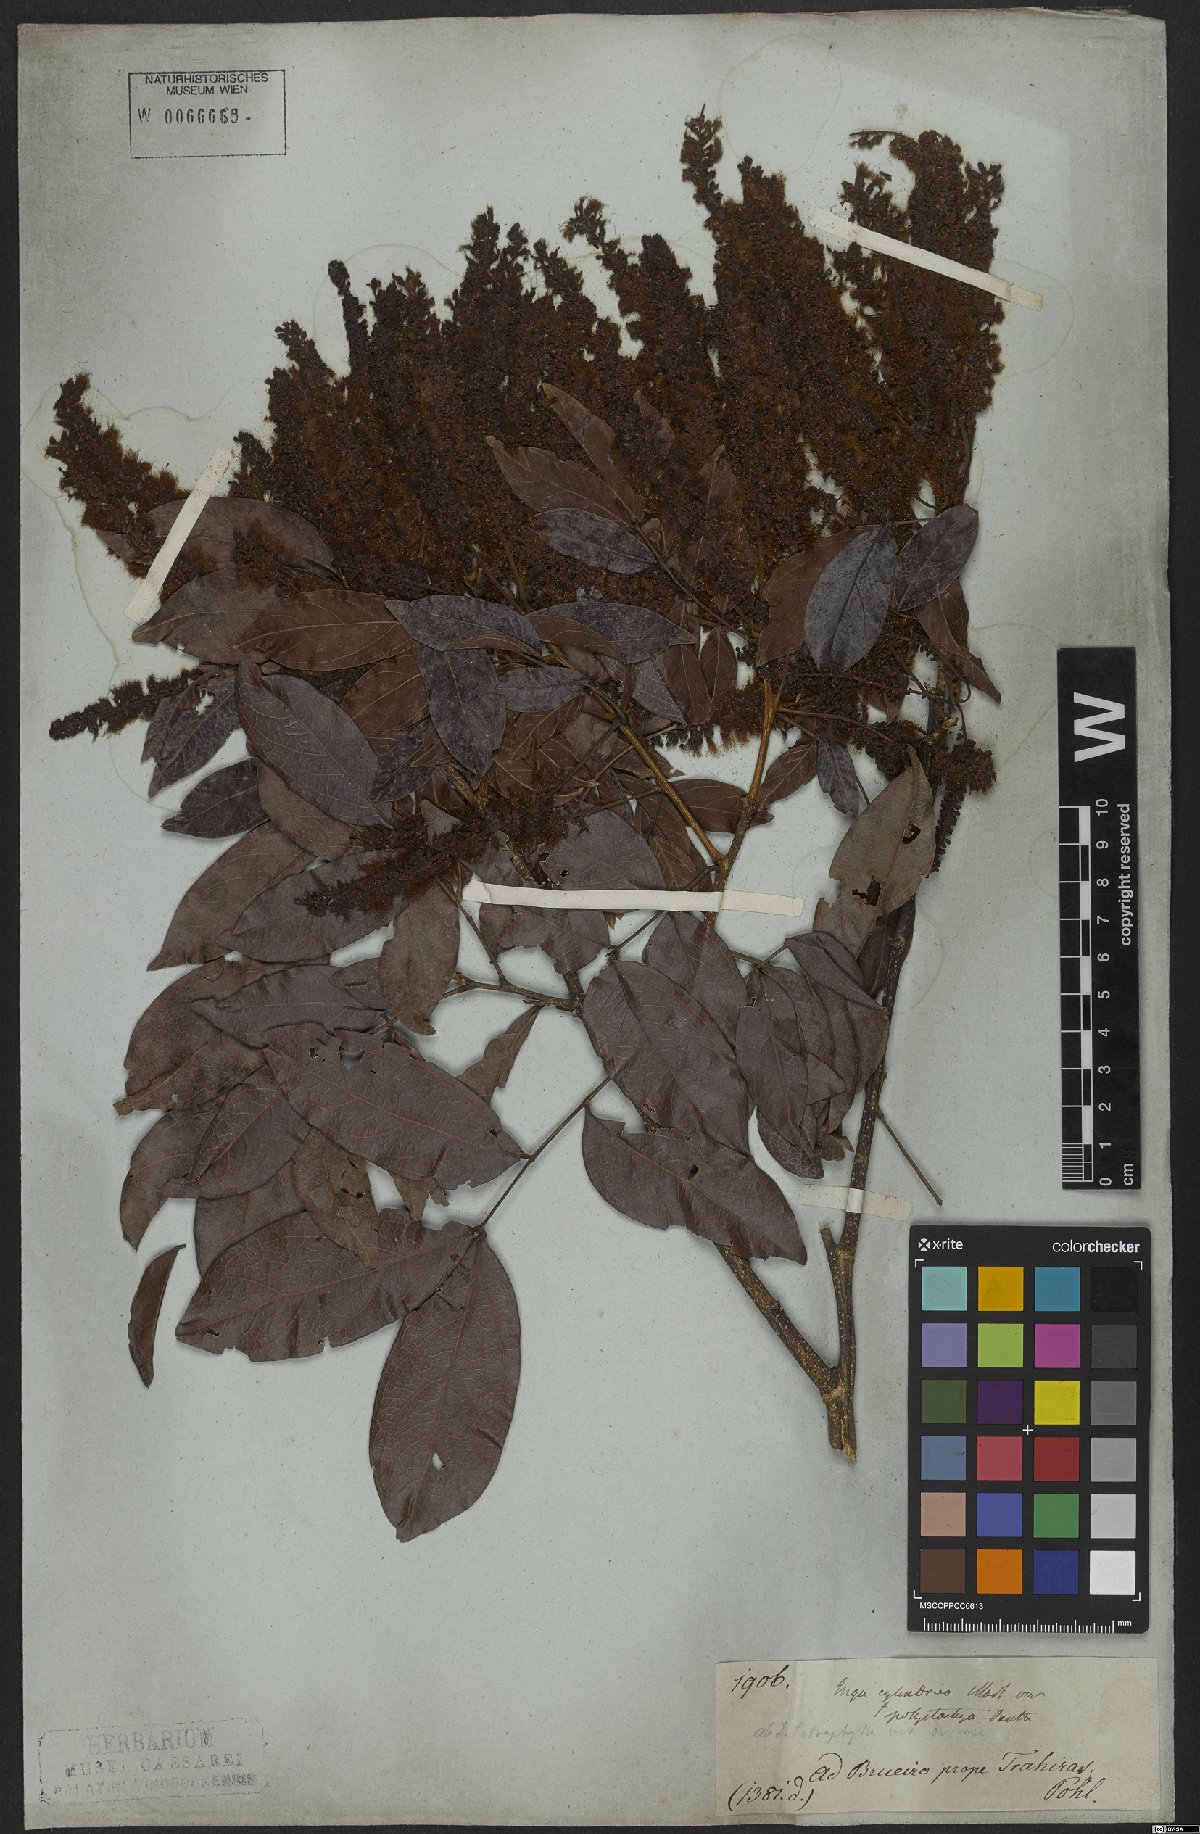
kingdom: Plantae
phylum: Tracheophyta
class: Magnoliopsida
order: Fabales
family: Fabaceae
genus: Inga
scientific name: Inga cylindrica
